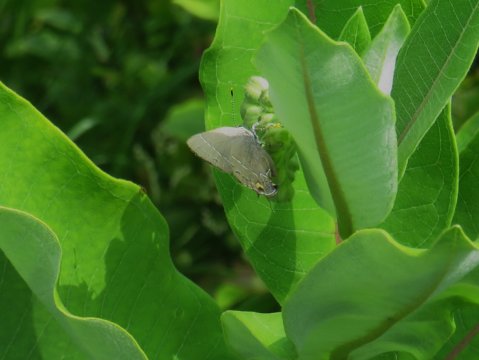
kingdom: Animalia
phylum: Arthropoda
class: Insecta
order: Lepidoptera
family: Lycaenidae
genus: Fixsenia
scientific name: Fixsenia favonius
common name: Oak Hairstreak
